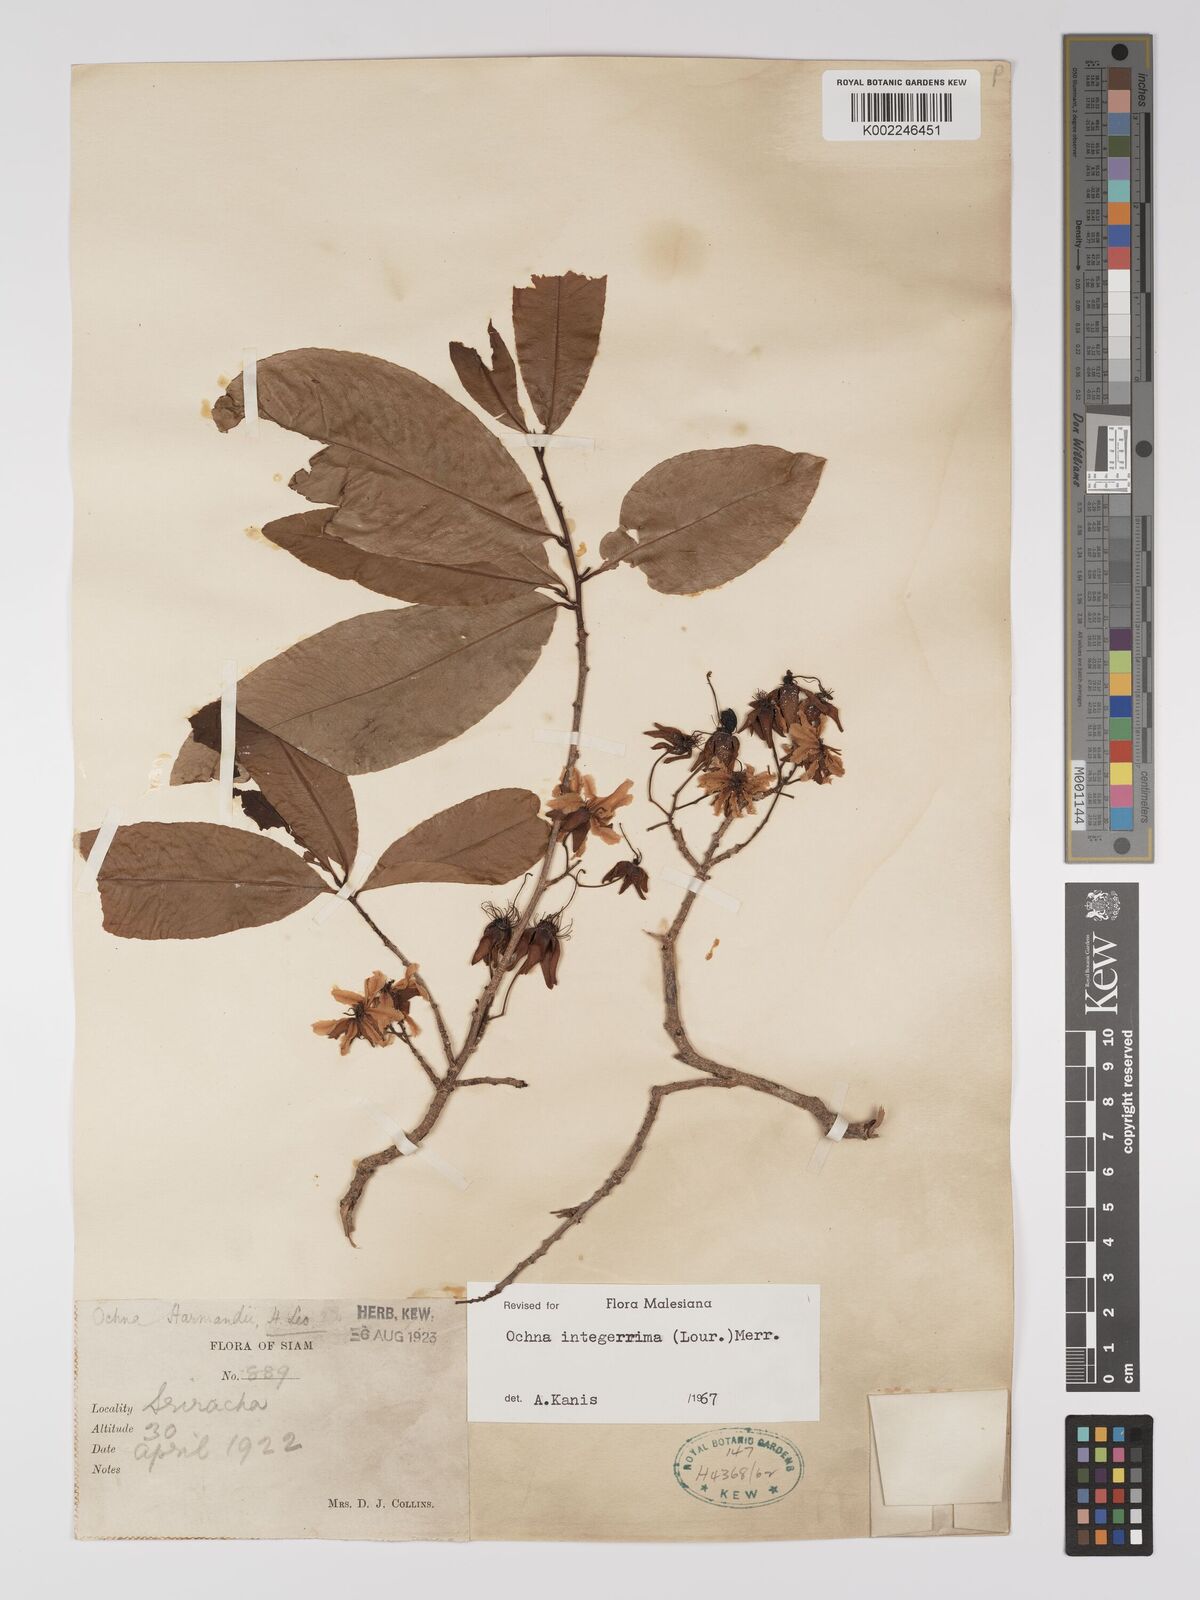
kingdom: Plantae
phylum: Tracheophyta
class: Magnoliopsida
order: Malpighiales
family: Ochnaceae
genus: Ochna
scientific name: Ochna integerrima
